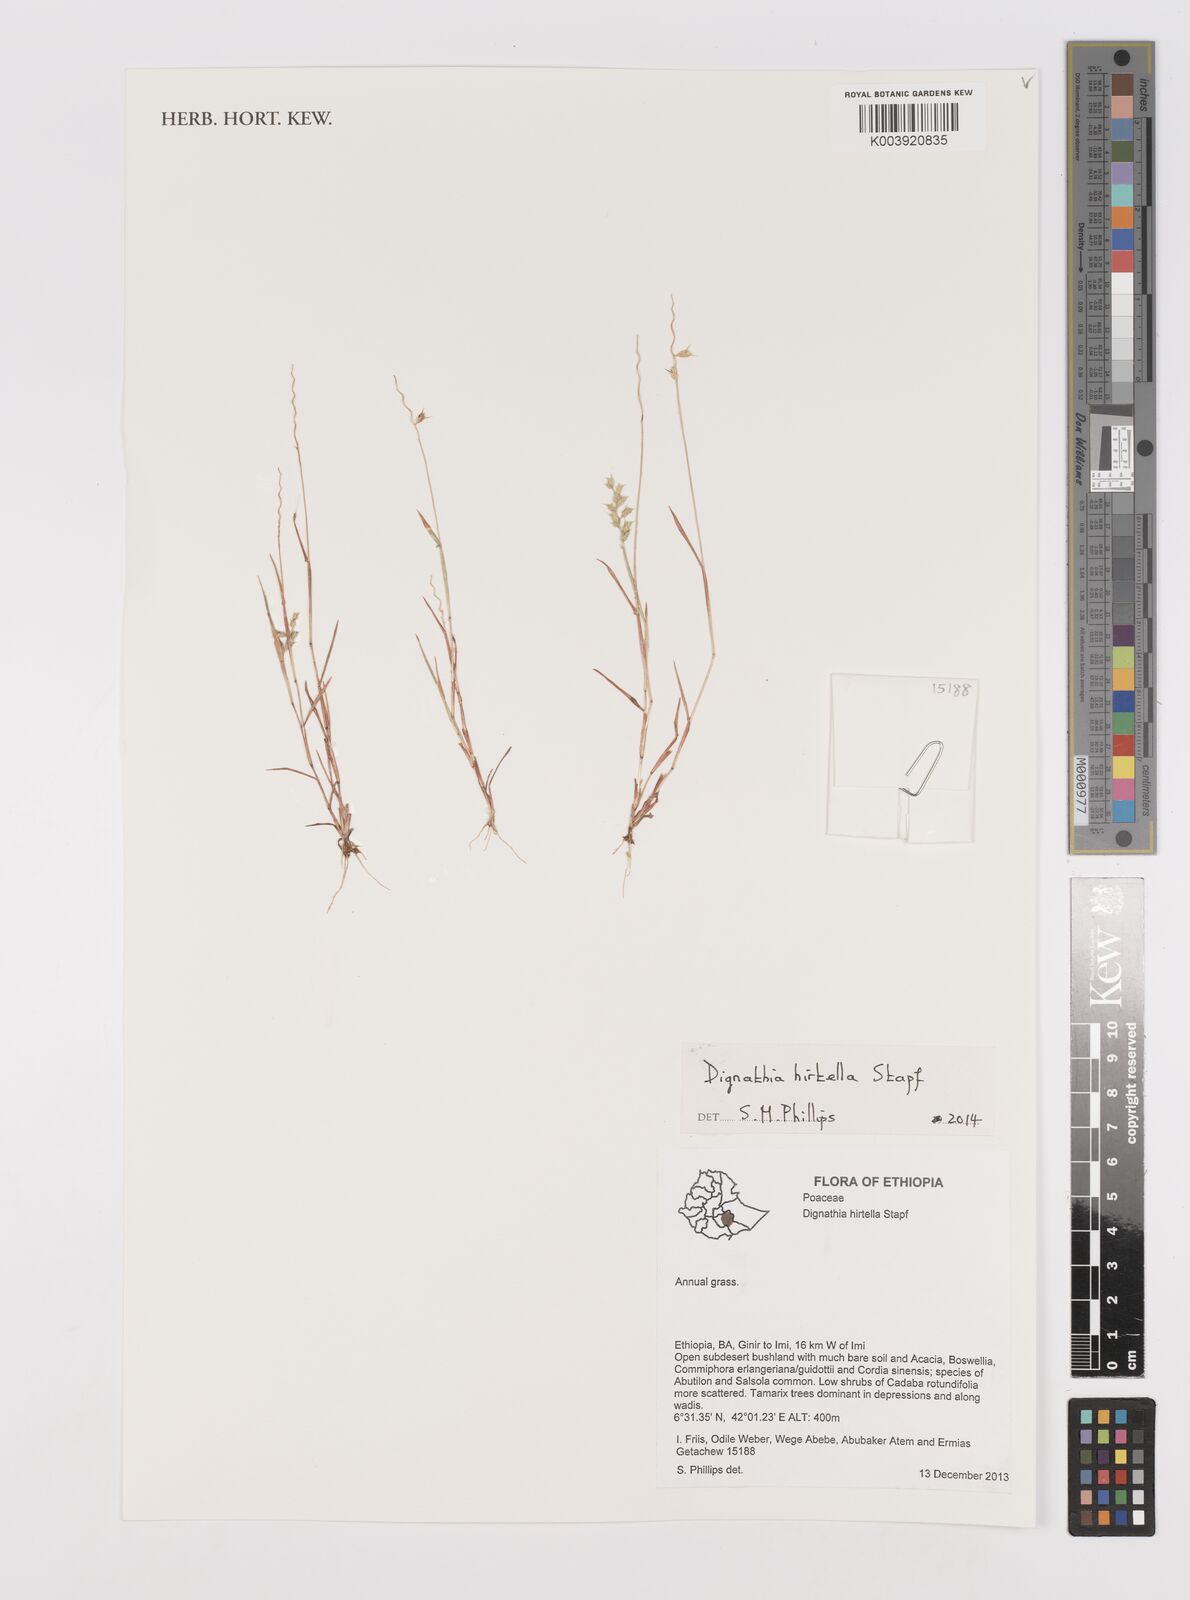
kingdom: Plantae
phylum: Tracheophyta
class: Liliopsida
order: Poales
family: Poaceae
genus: Dignathia
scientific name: Dignathia hirtella
